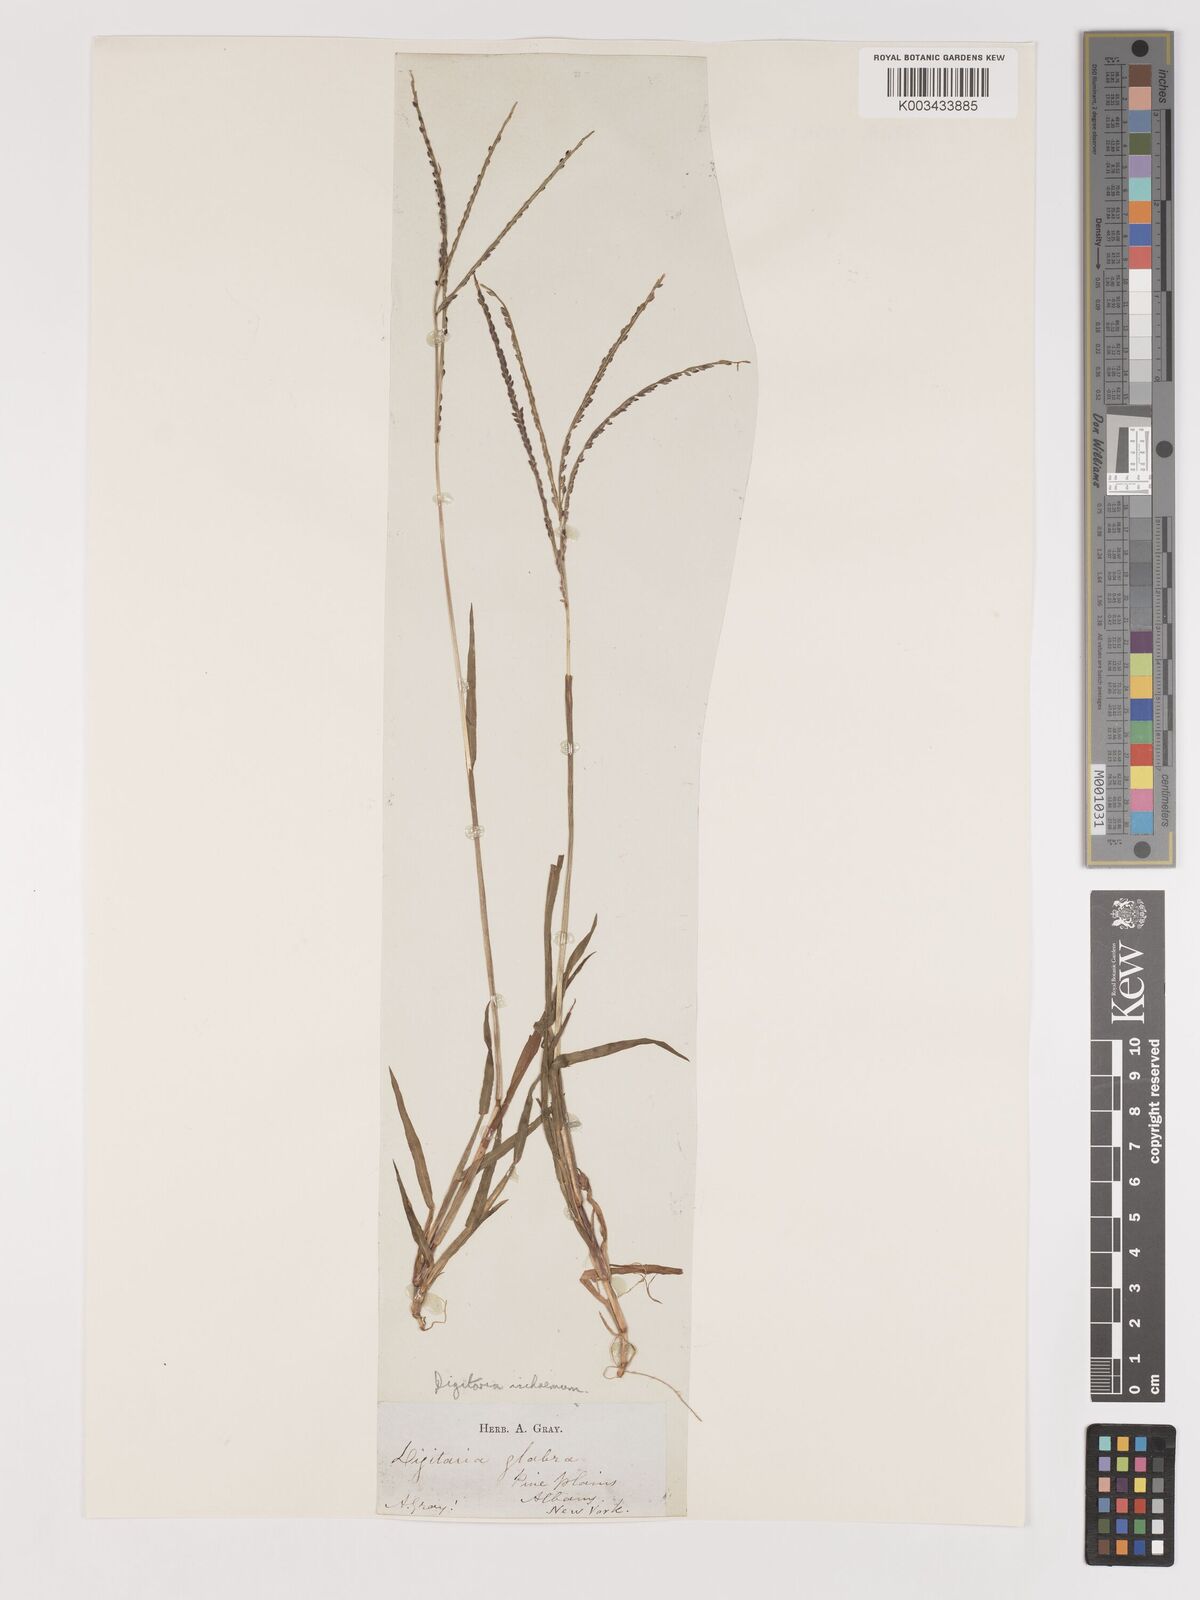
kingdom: Plantae
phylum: Tracheophyta
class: Liliopsida
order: Poales
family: Poaceae
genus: Digitaria
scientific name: Digitaria ischaemum
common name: Smooth crabgrass
